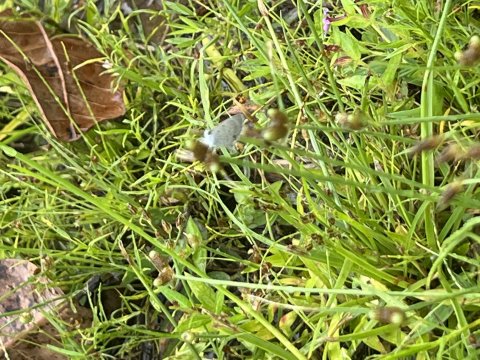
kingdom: Animalia
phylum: Arthropoda
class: Insecta
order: Lepidoptera
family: Lycaenidae
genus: Hemiargus
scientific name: Hemiargus
